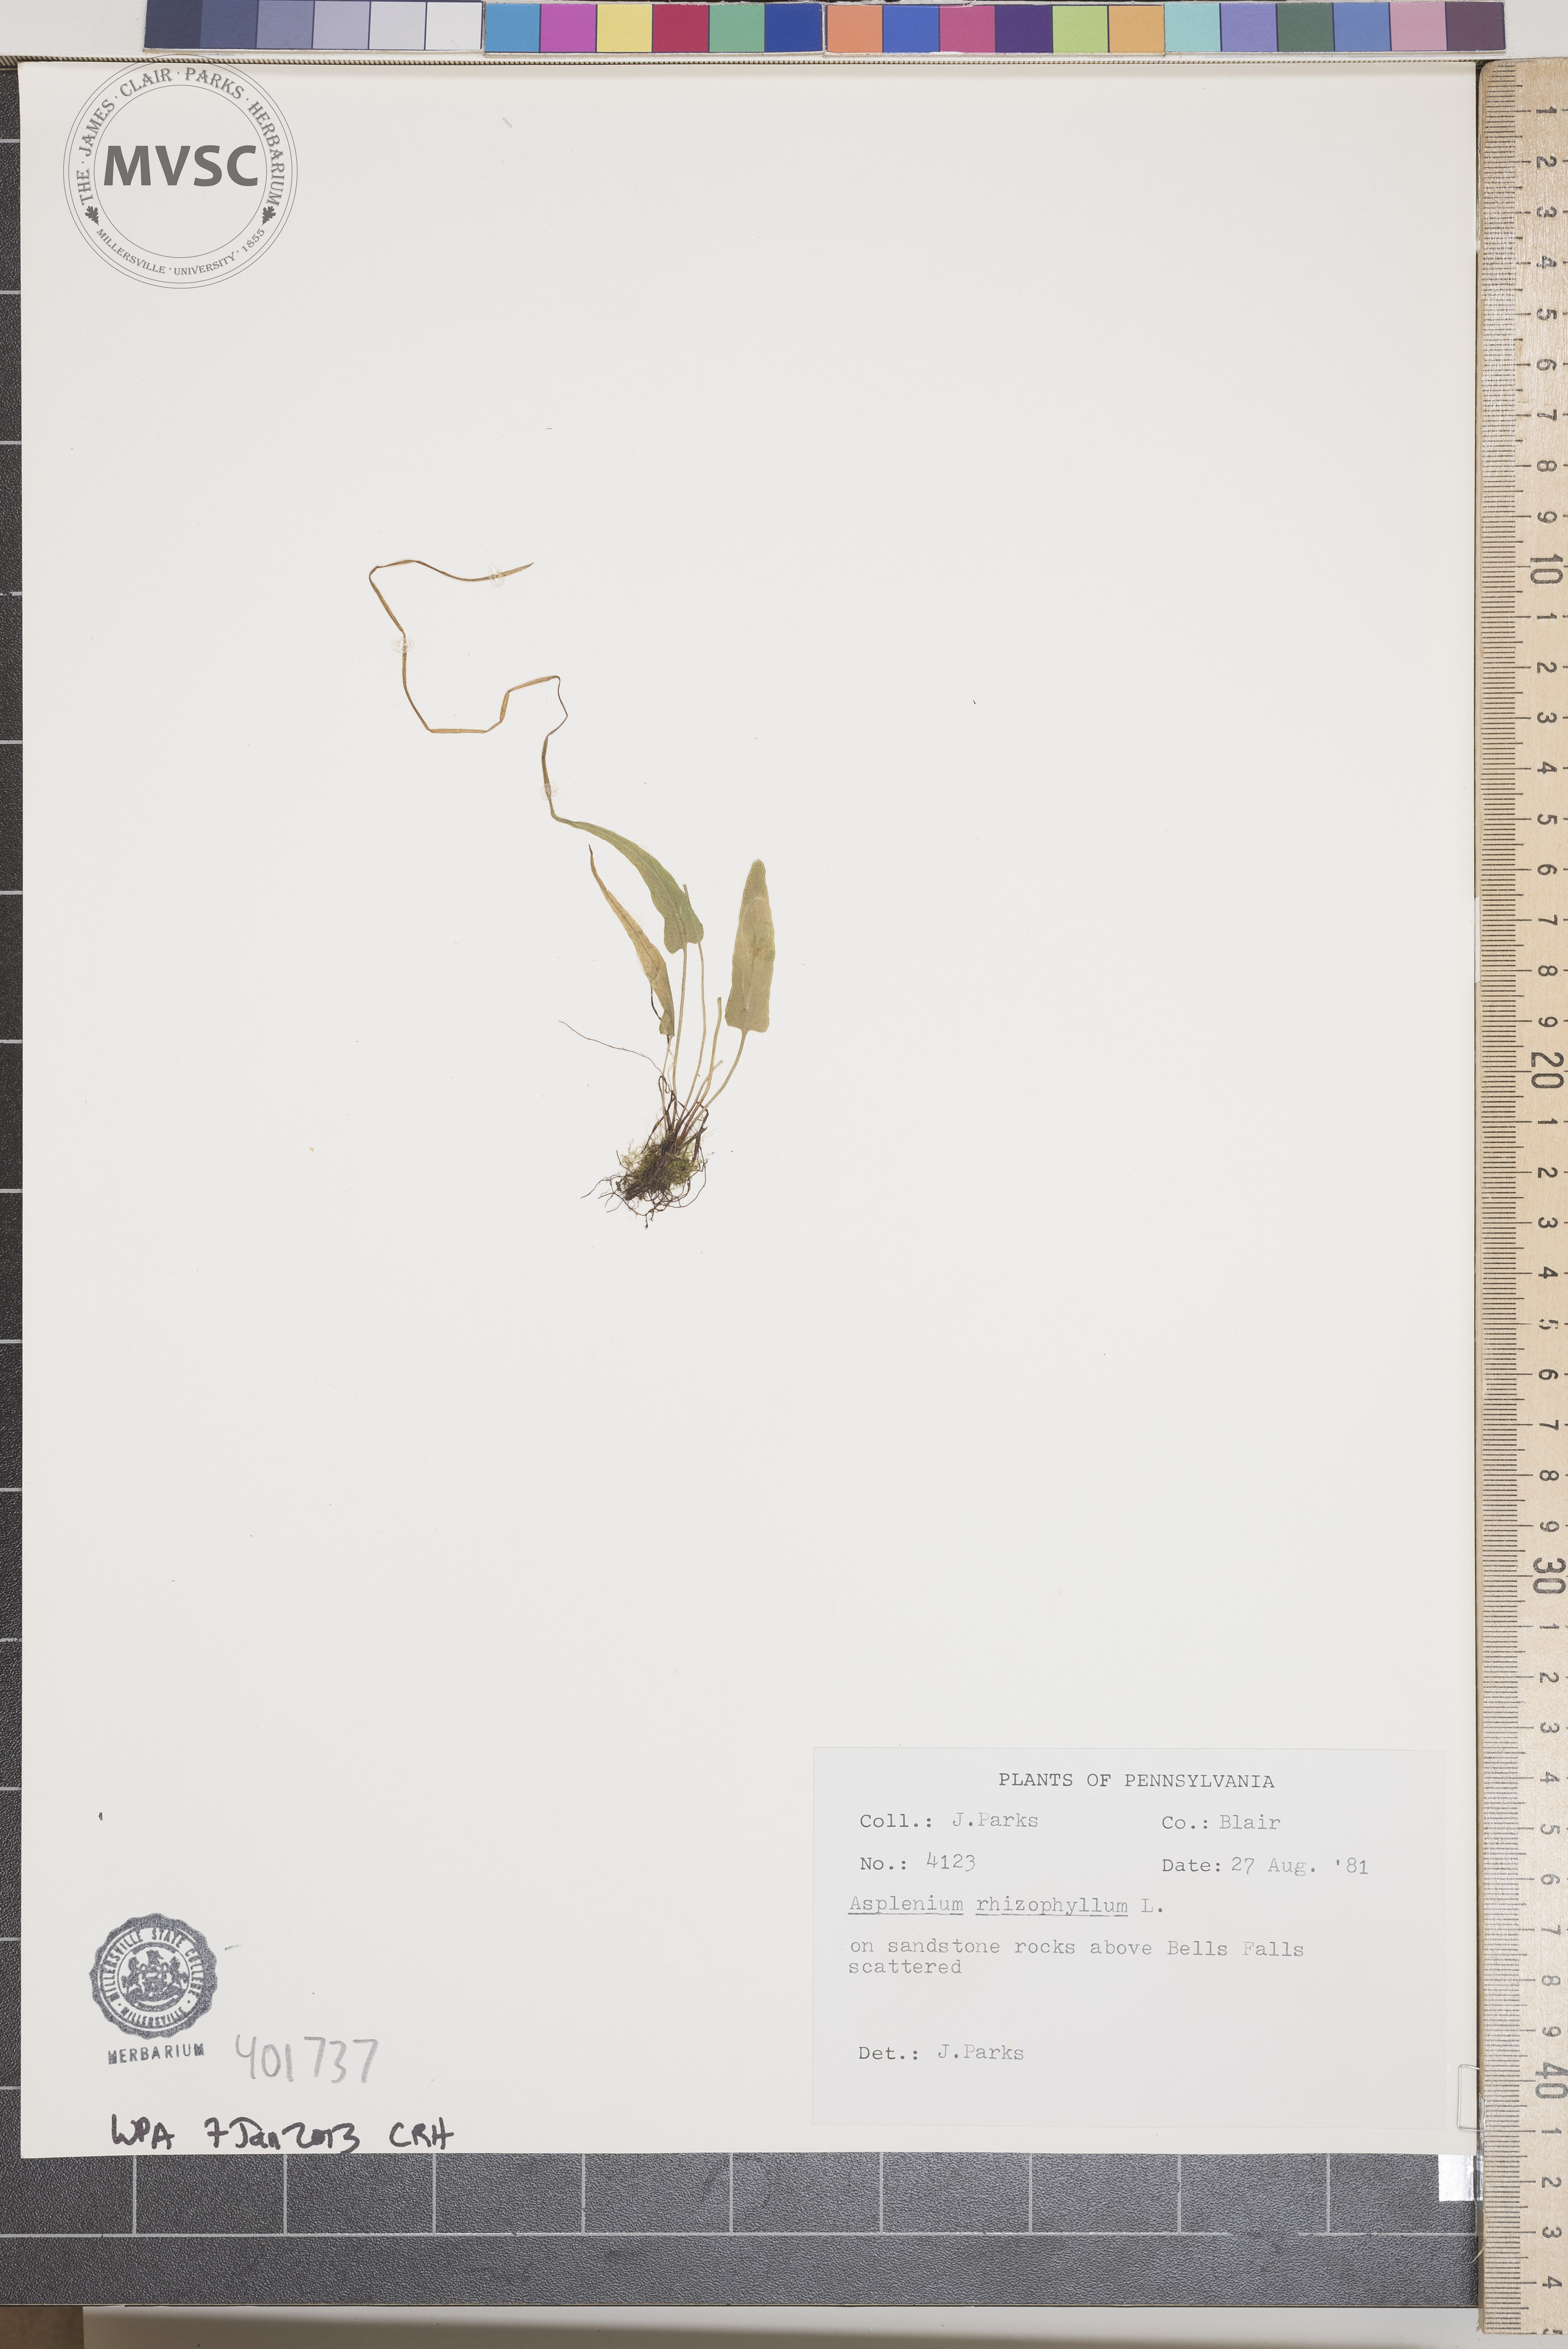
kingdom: Plantae
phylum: Tracheophyta
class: Polypodiopsida
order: Polypodiales
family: Aspleniaceae
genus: Asplenium
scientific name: Asplenium rhizophyllum
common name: Walking fern
